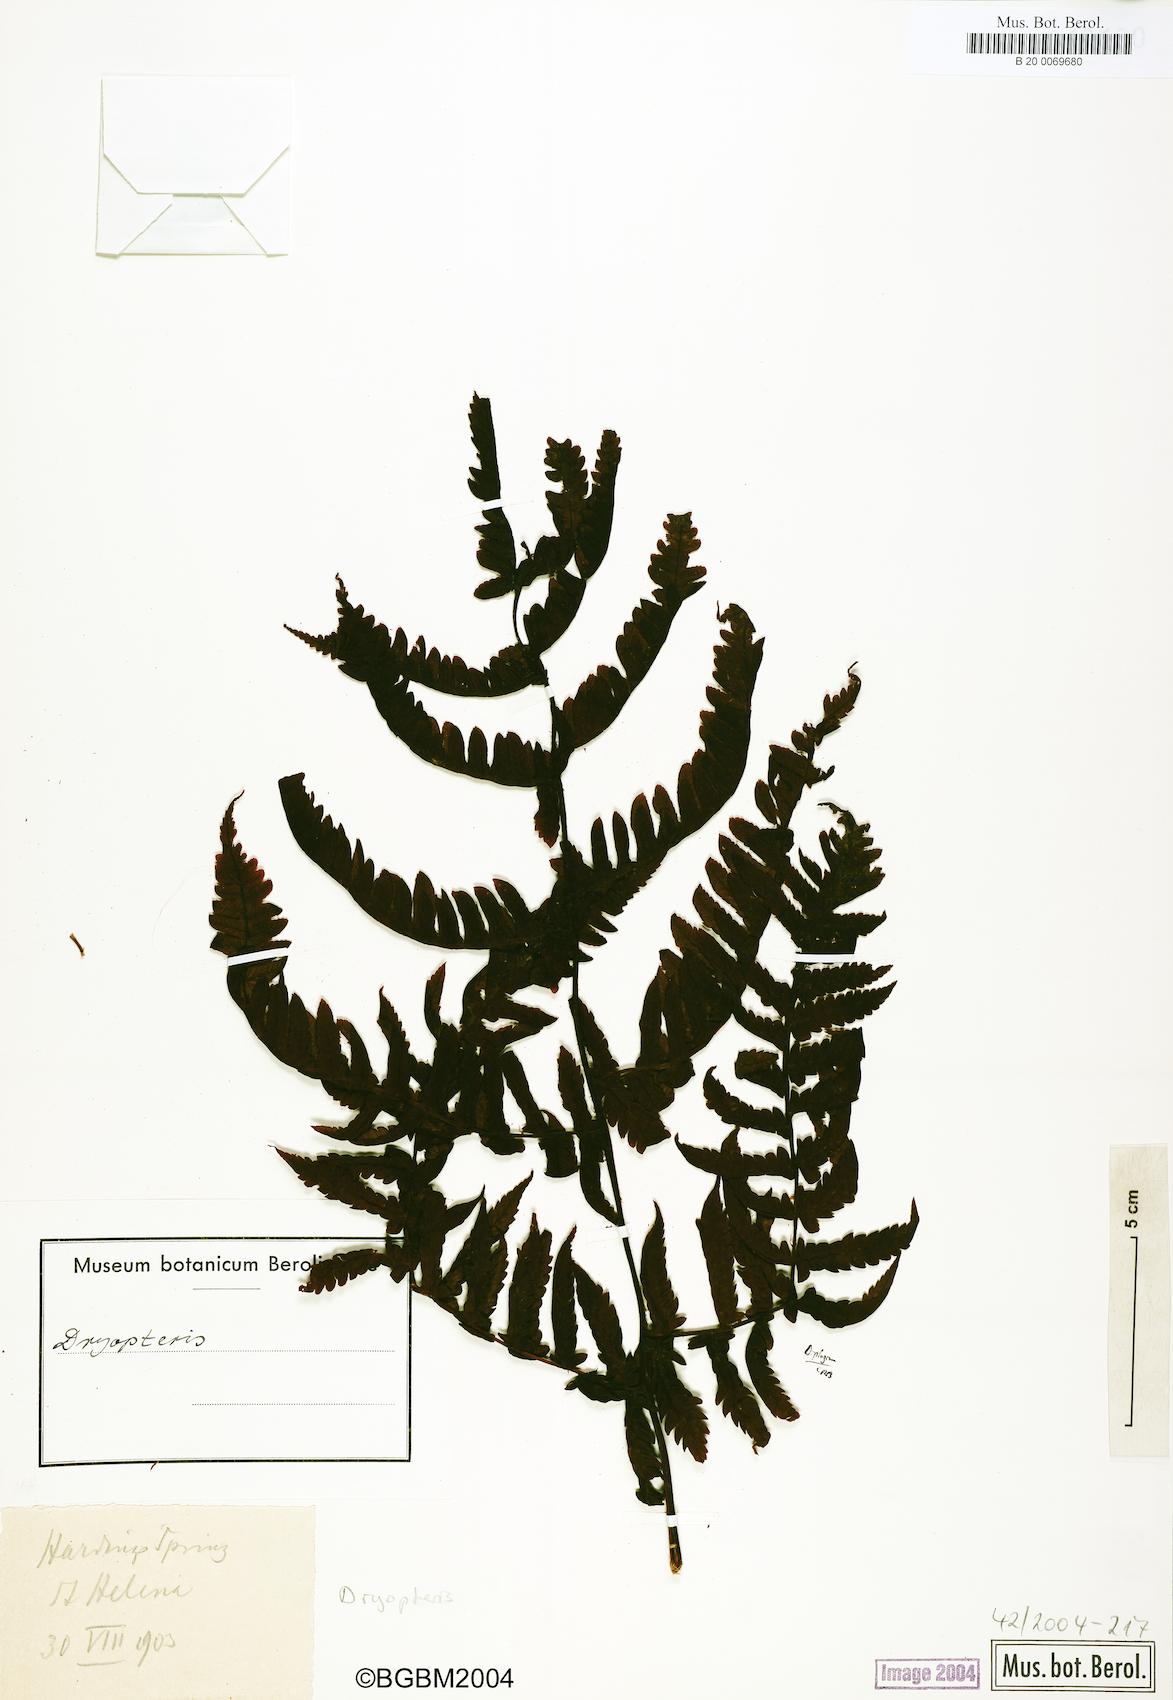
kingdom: Plantae
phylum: Tracheophyta
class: Polypodiopsida
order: Polypodiales
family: Dryopteridaceae
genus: Dryopteris
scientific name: Dryopteris
